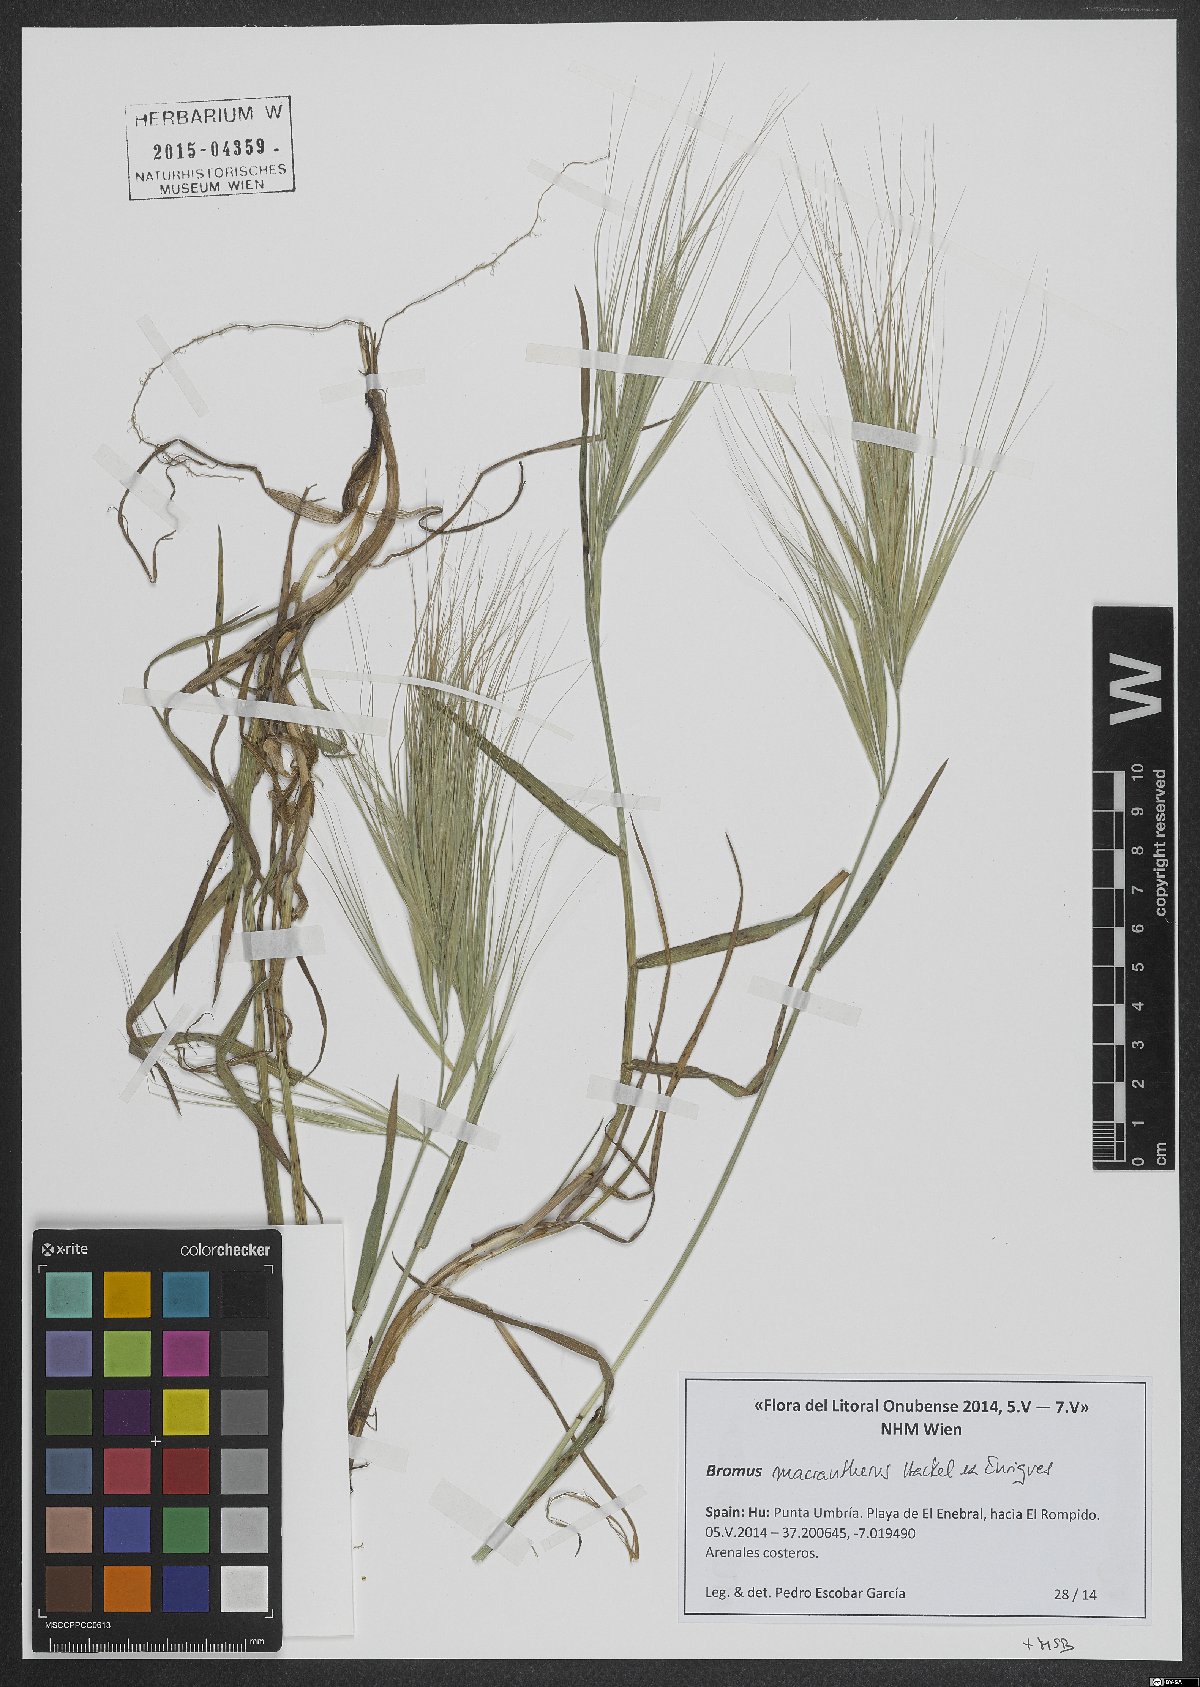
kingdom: Plantae
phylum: Tracheophyta
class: Liliopsida
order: Poales
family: Poaceae
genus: Bromus
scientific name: Bromus diandrus
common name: Ripgut brome
